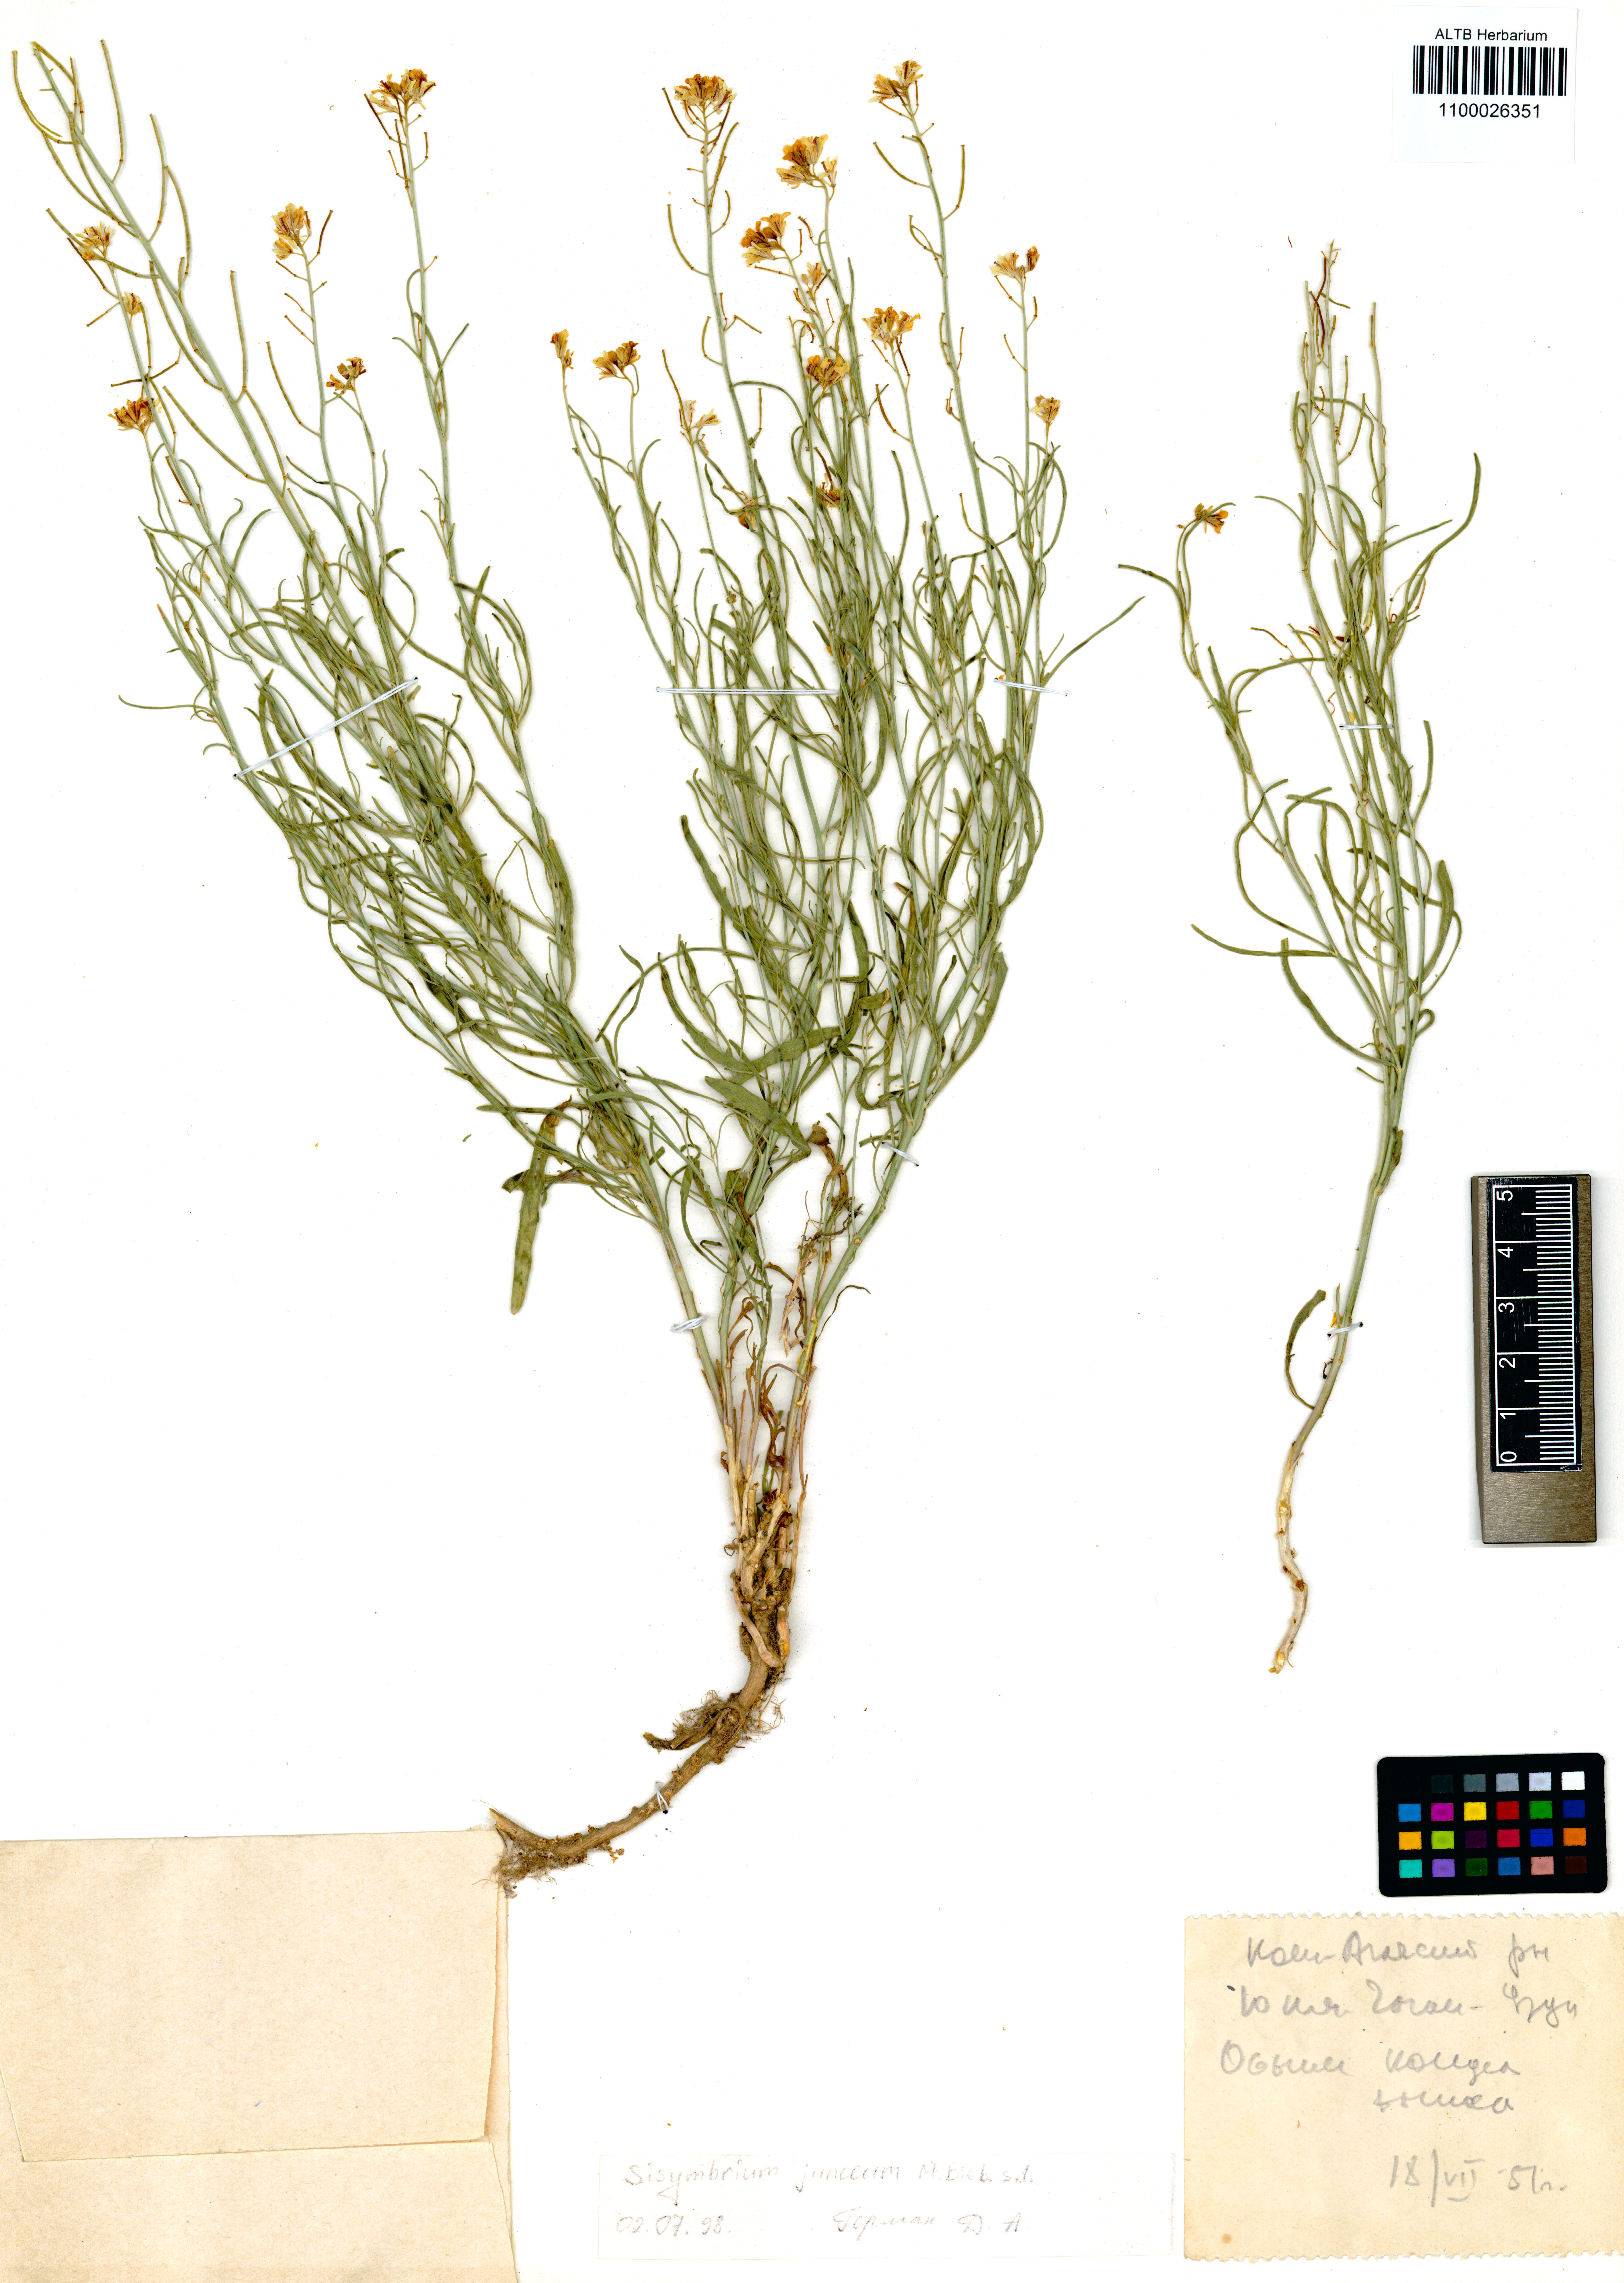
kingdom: Plantae
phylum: Tracheophyta
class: Magnoliopsida
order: Brassicales
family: Brassicaceae
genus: Sisymbrium
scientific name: Sisymbrium polymorphum
